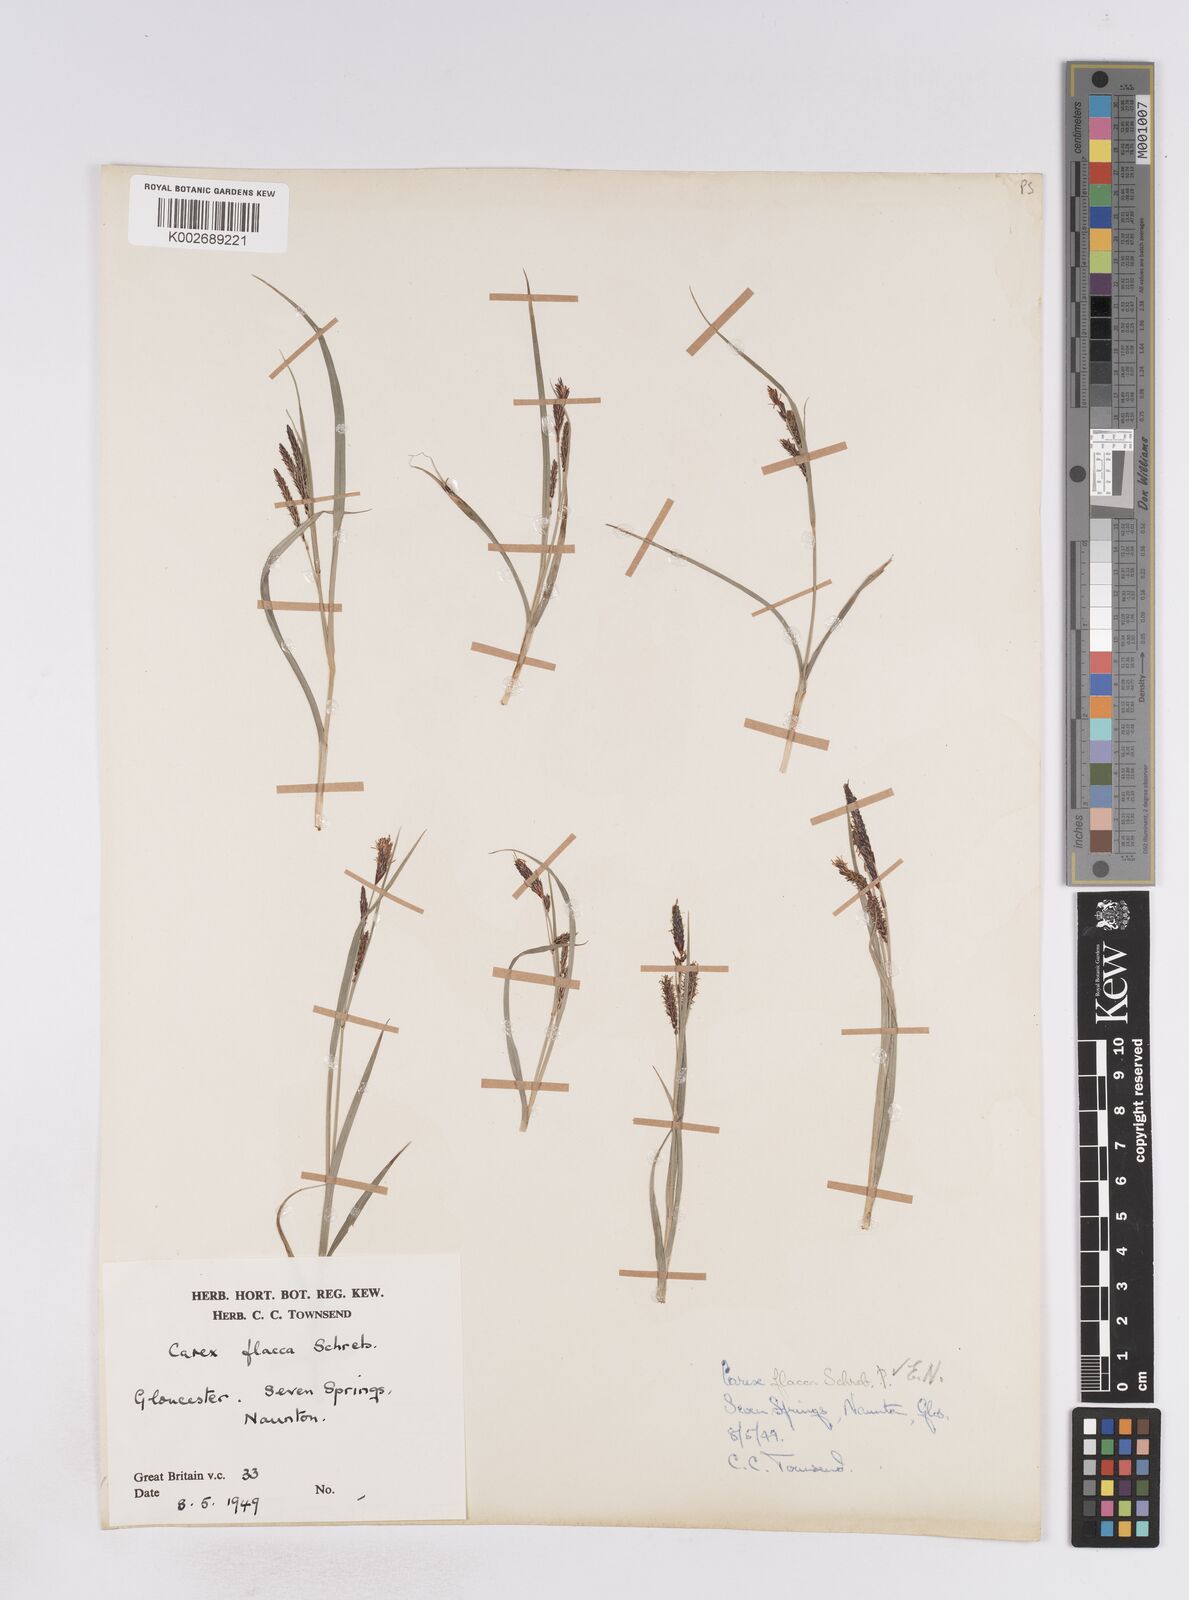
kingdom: Plantae
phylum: Tracheophyta
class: Liliopsida
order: Poales
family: Cyperaceae
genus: Carex
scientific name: Carex flacca
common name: Glaucous sedge
